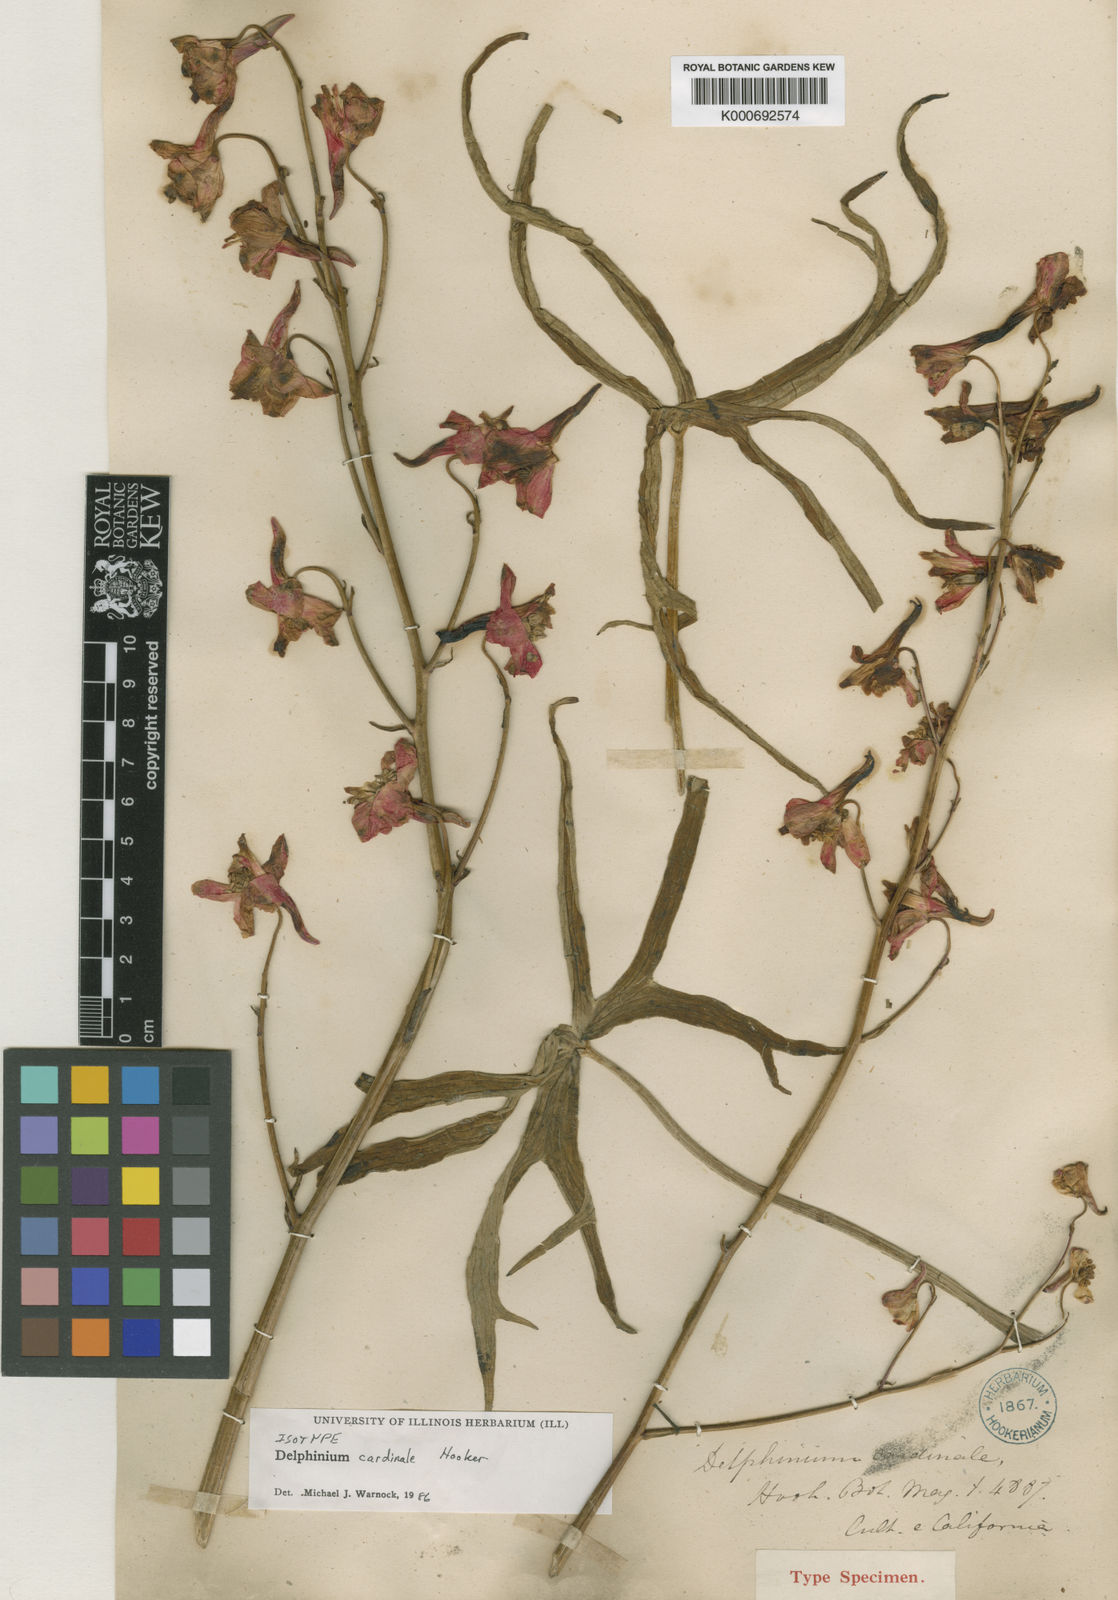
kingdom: Plantae
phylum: Tracheophyta
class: Magnoliopsida
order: Ranunculales
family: Ranunculaceae
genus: Delphinium
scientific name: Delphinium cardinale
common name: Scarlet larkspur
